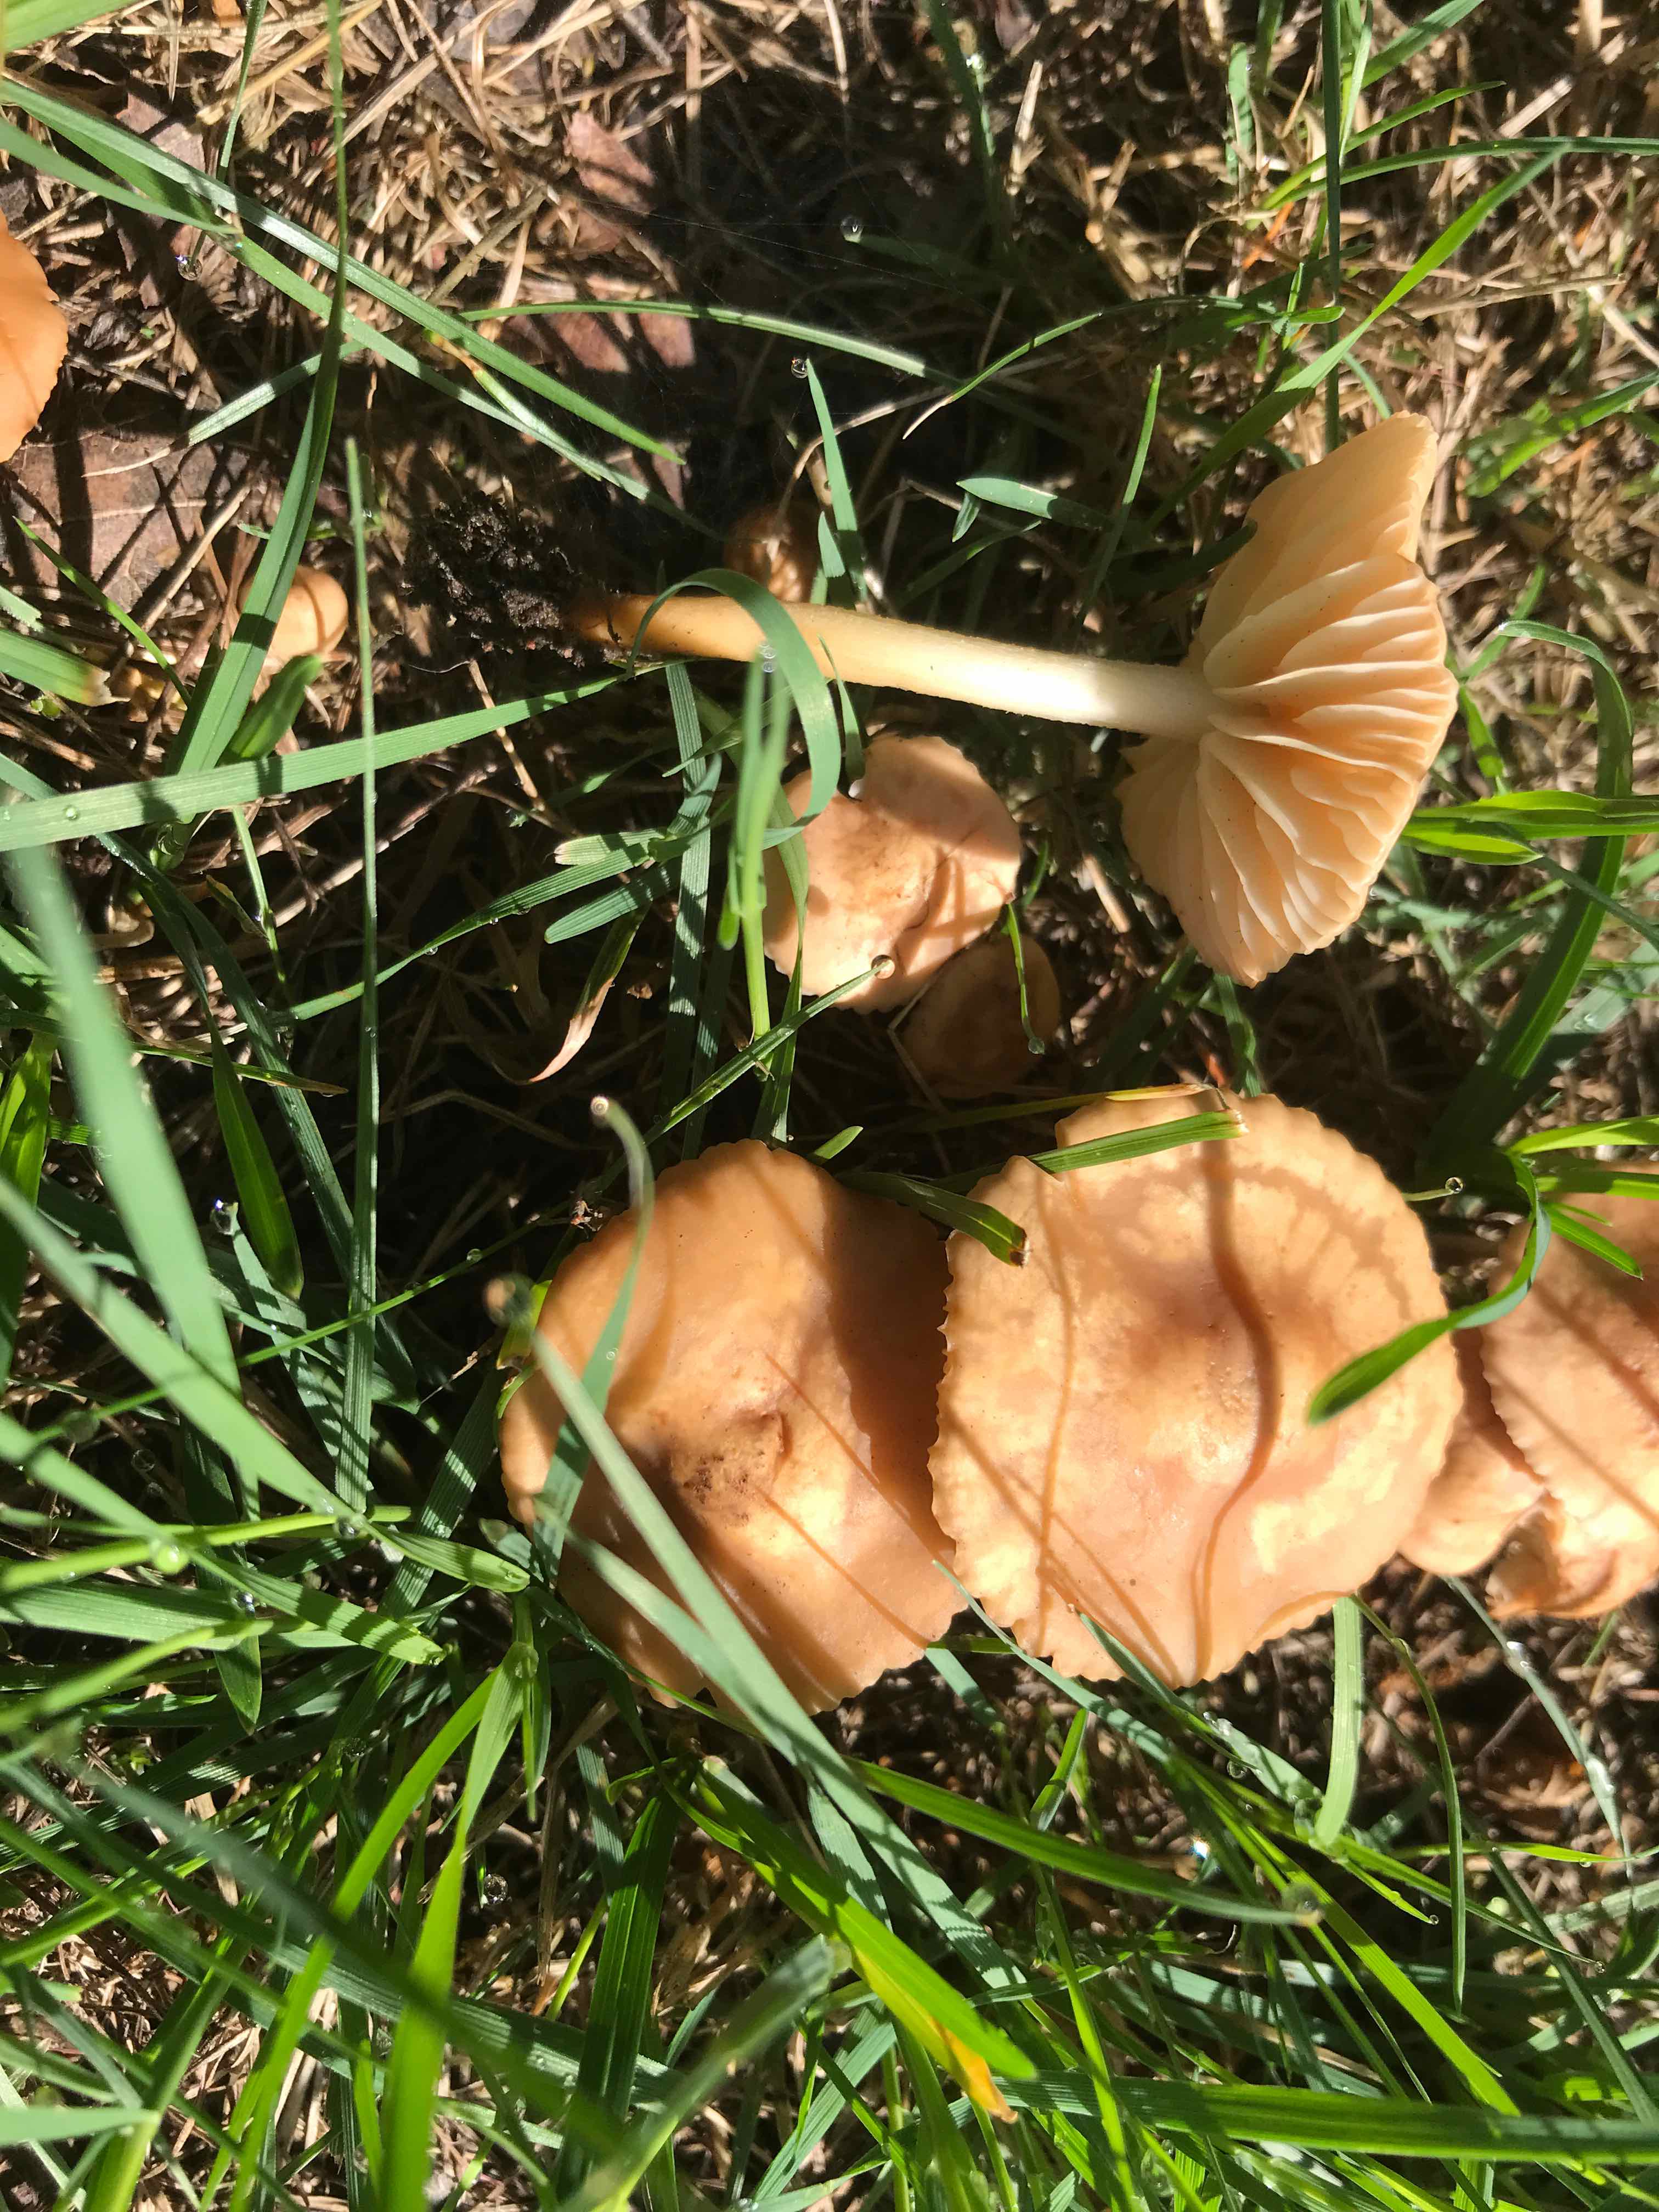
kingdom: Fungi
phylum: Basidiomycota
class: Agaricomycetes
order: Agaricales
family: Marasmiaceae
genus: Marasmius
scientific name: Marasmius oreades
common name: elledans-bruskhat
